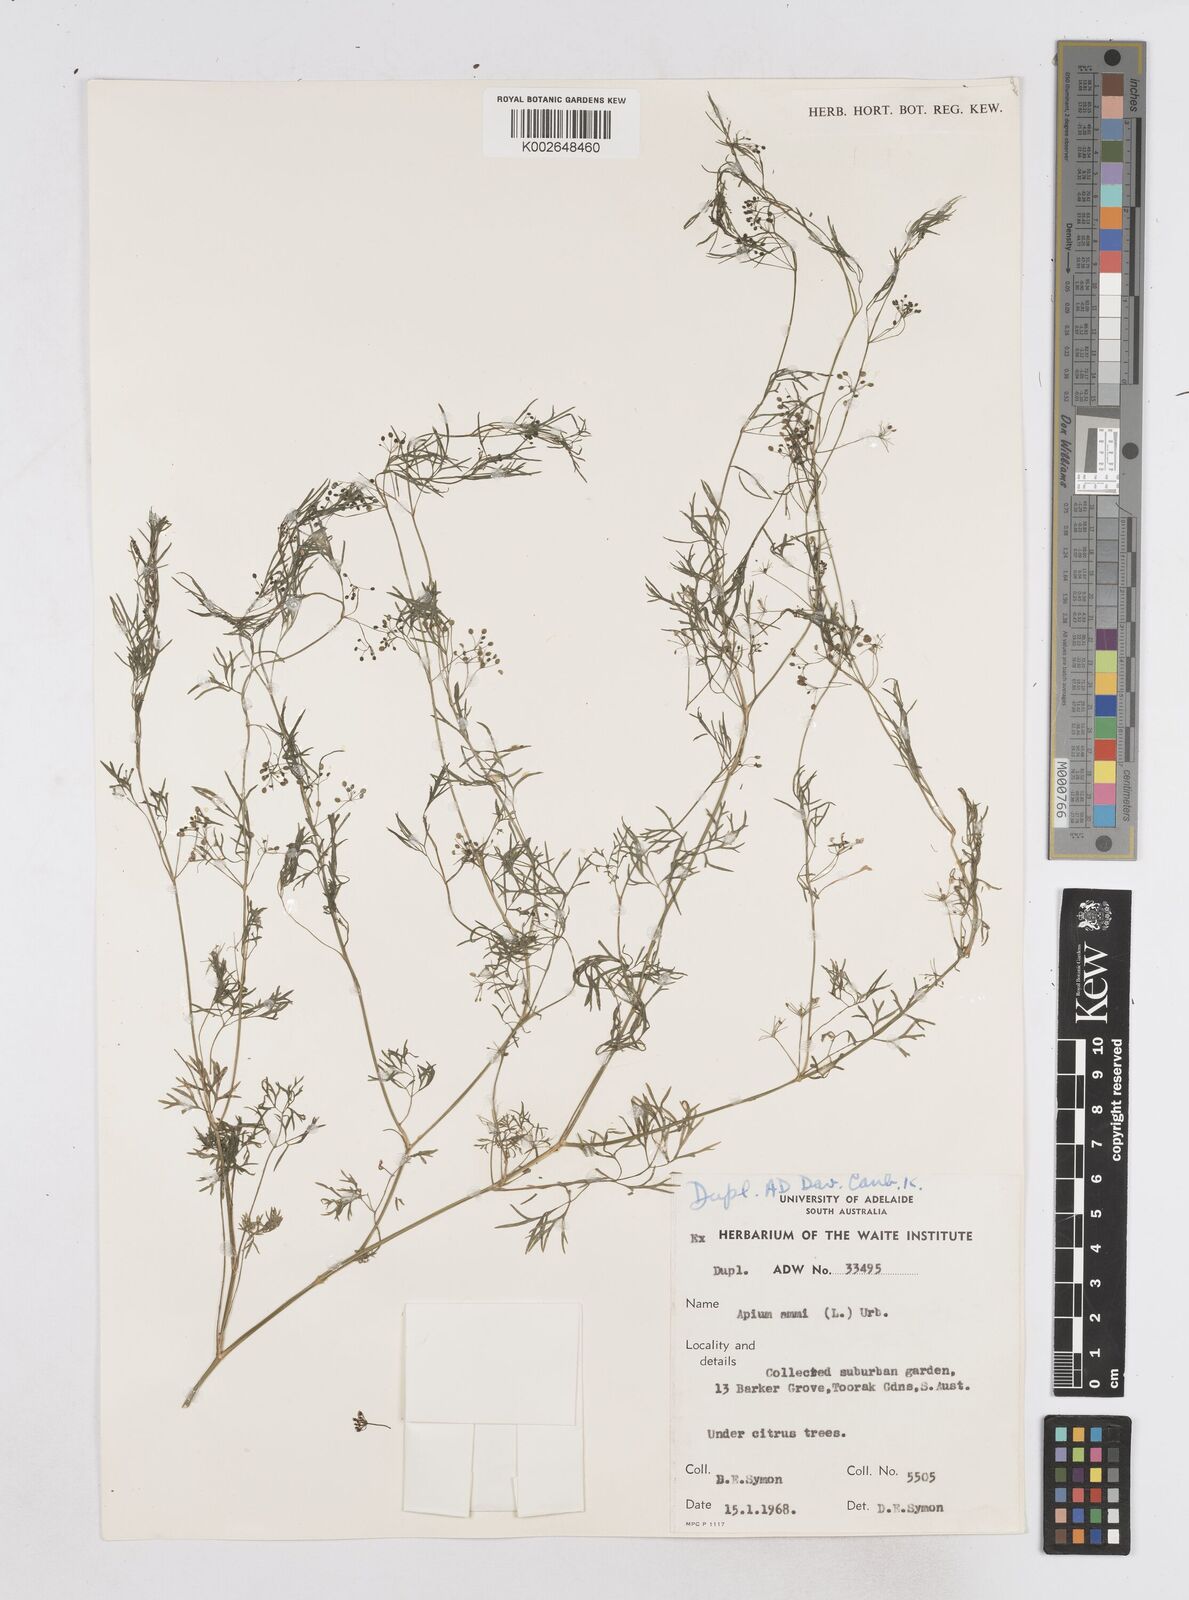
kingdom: Plantae
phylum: Tracheophyta
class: Magnoliopsida
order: Apiales
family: Apiaceae
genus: Cyclospermum
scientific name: Cyclospermum leptophyllum
